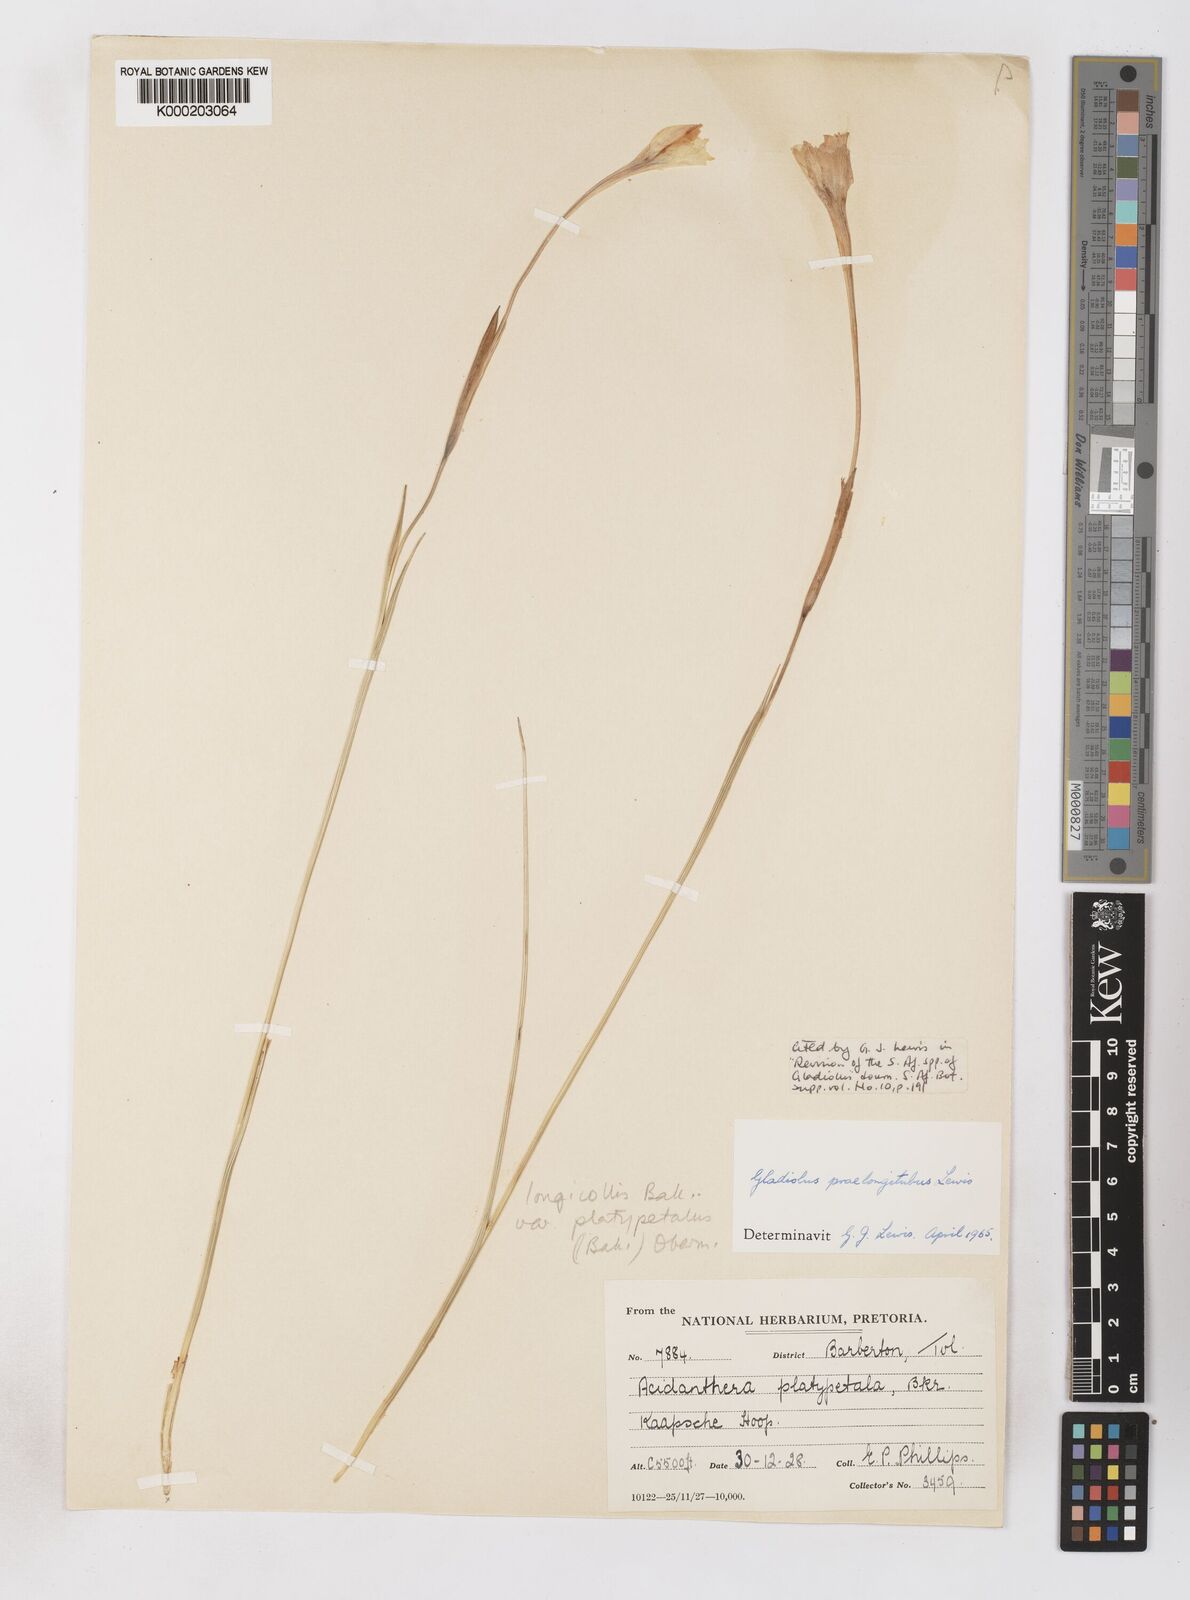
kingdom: Plantae
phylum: Tracheophyta
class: Liliopsida
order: Asparagales
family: Iridaceae
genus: Gladiolus
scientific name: Gladiolus longicollis
